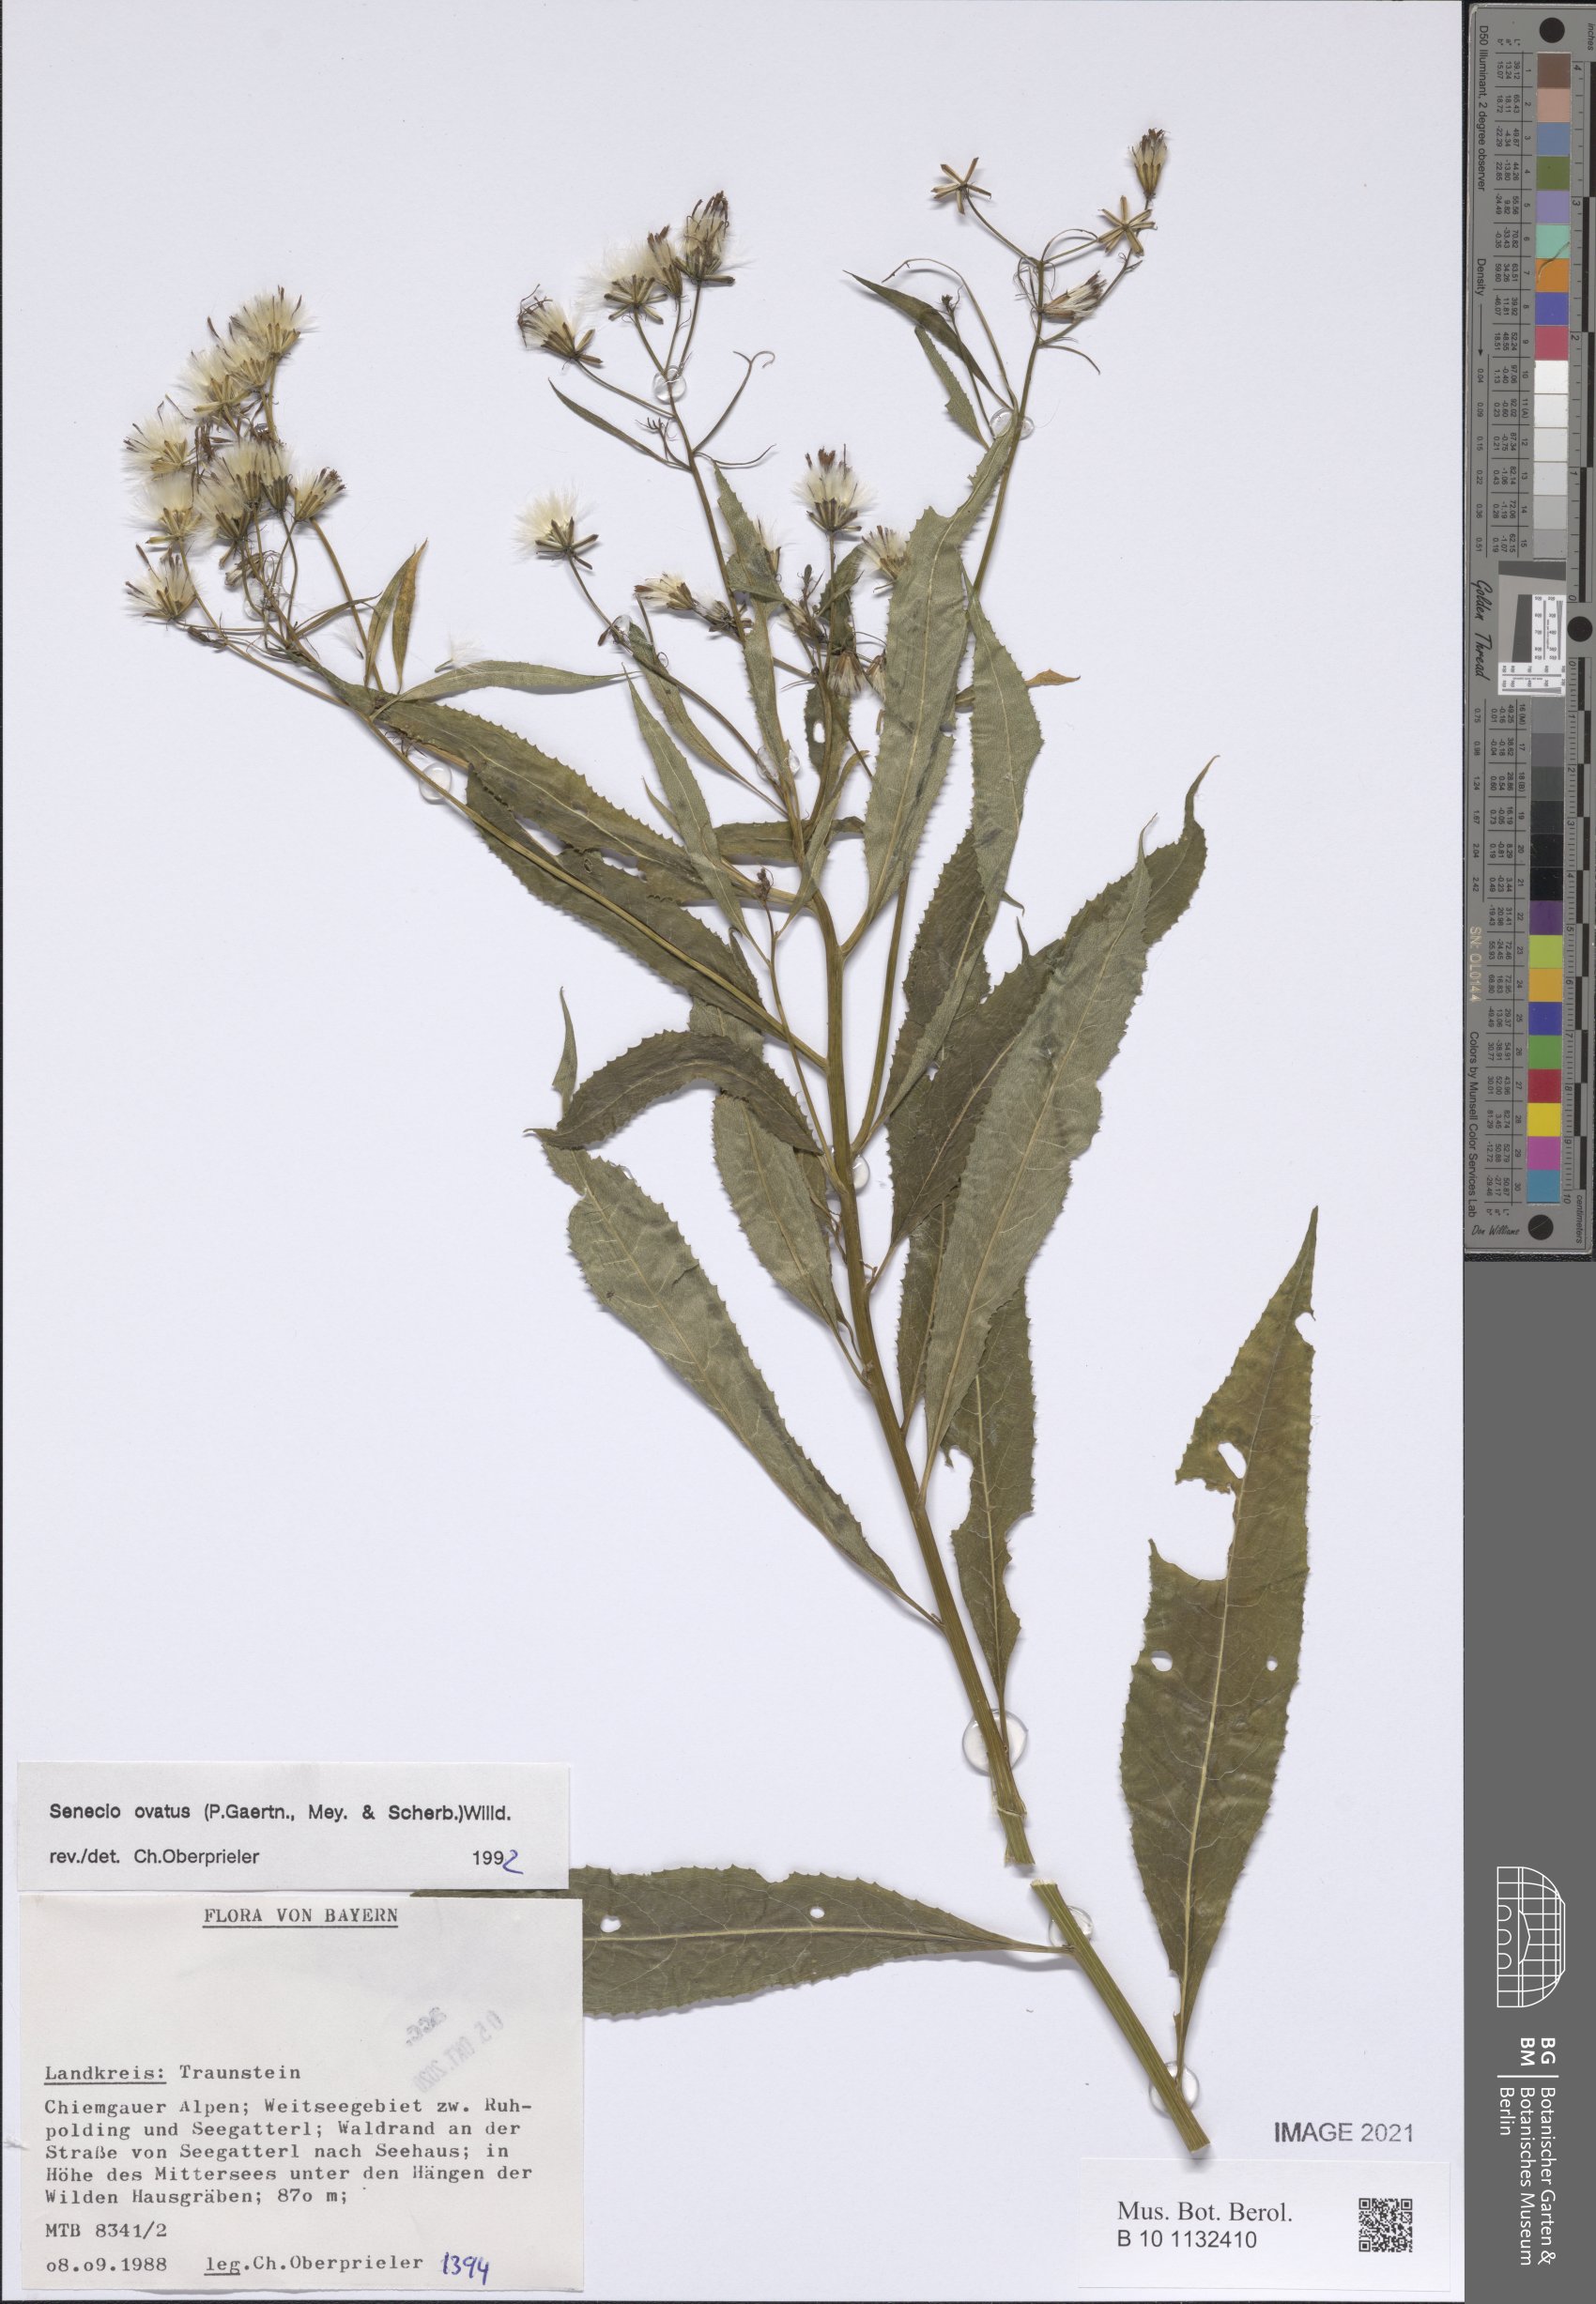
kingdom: Plantae
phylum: Tracheophyta
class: Magnoliopsida
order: Asterales
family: Asteraceae
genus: Senecio
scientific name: Senecio ovatus
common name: Wood ragwort
